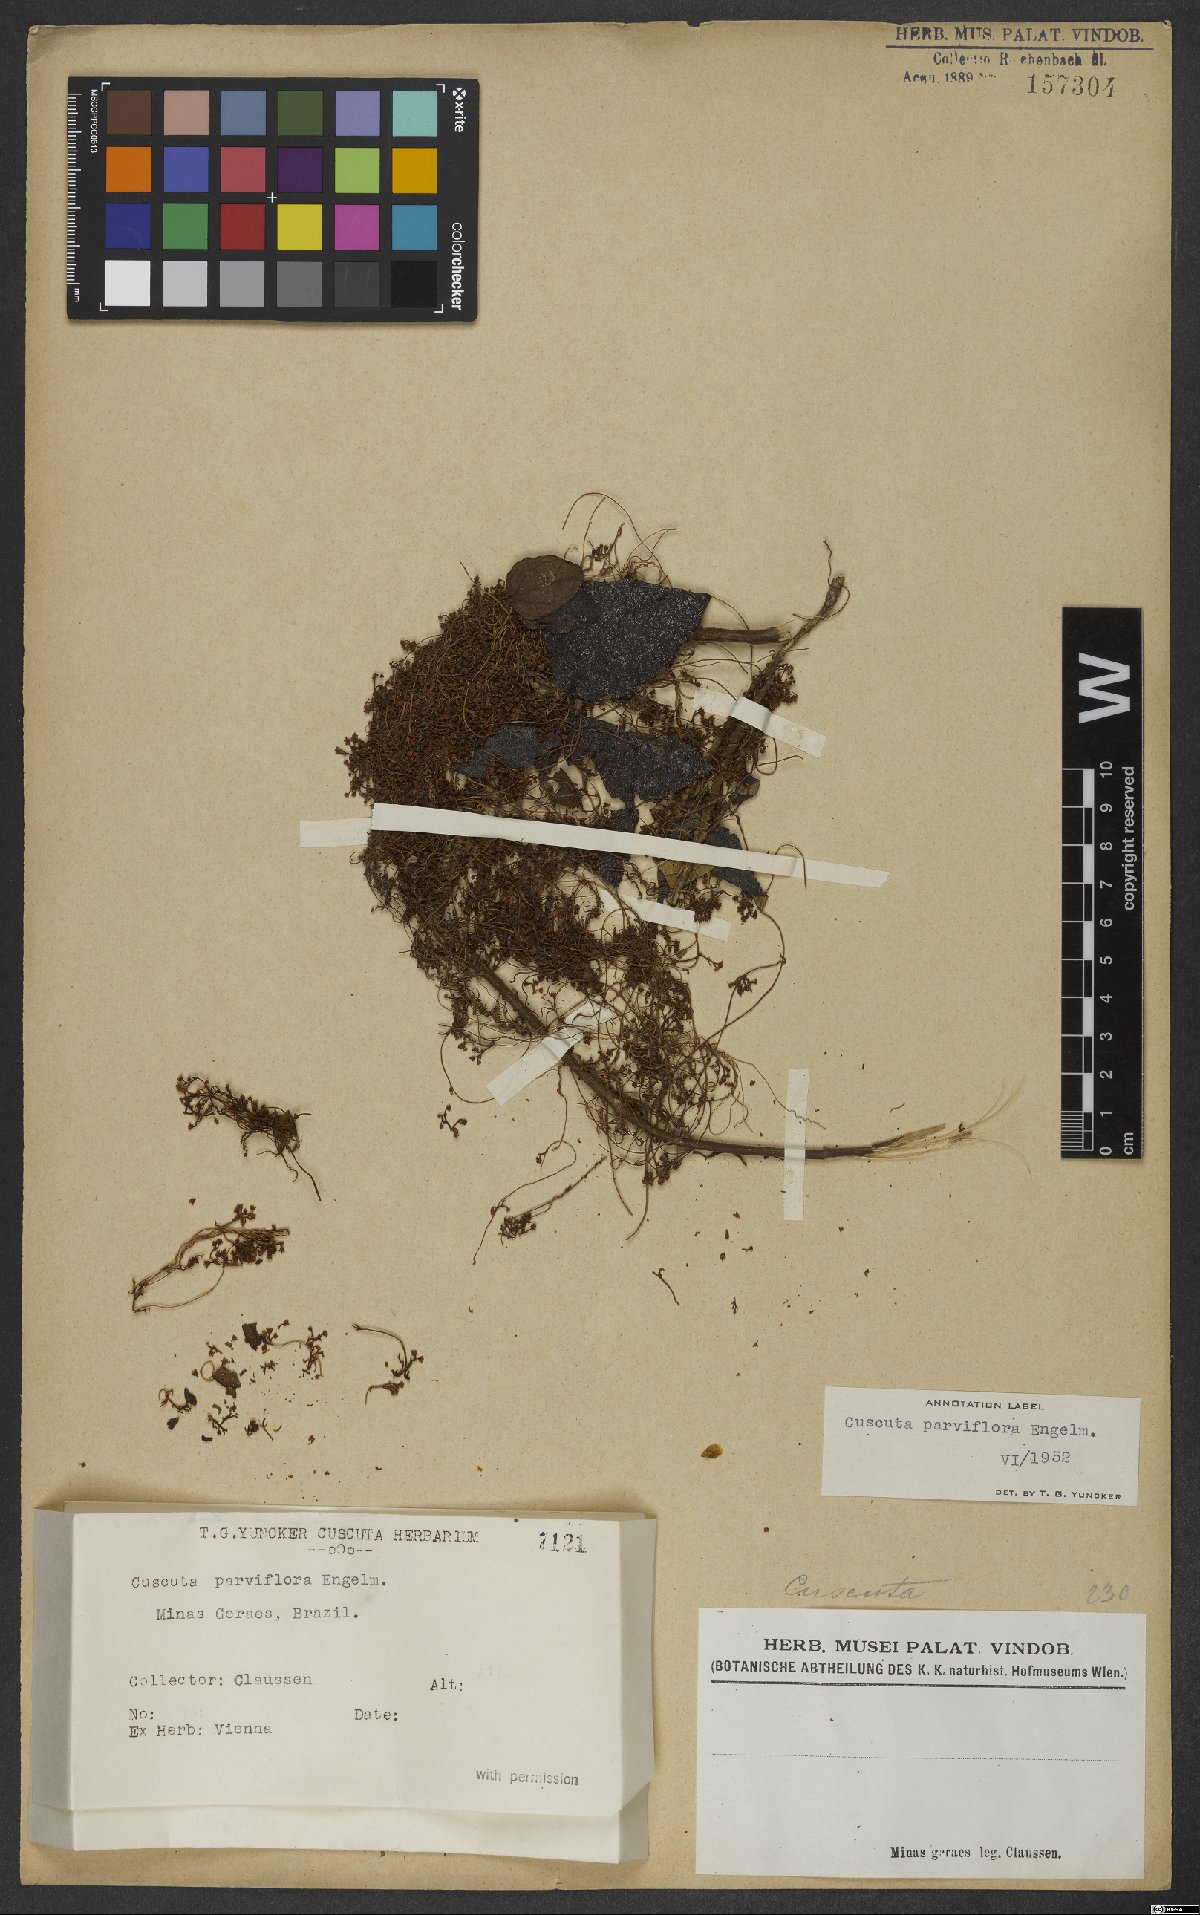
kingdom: Plantae
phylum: Tracheophyta
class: Magnoliopsida
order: Solanales
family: Convolvulaceae
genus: Cuscuta
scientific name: Cuscuta parviflora
